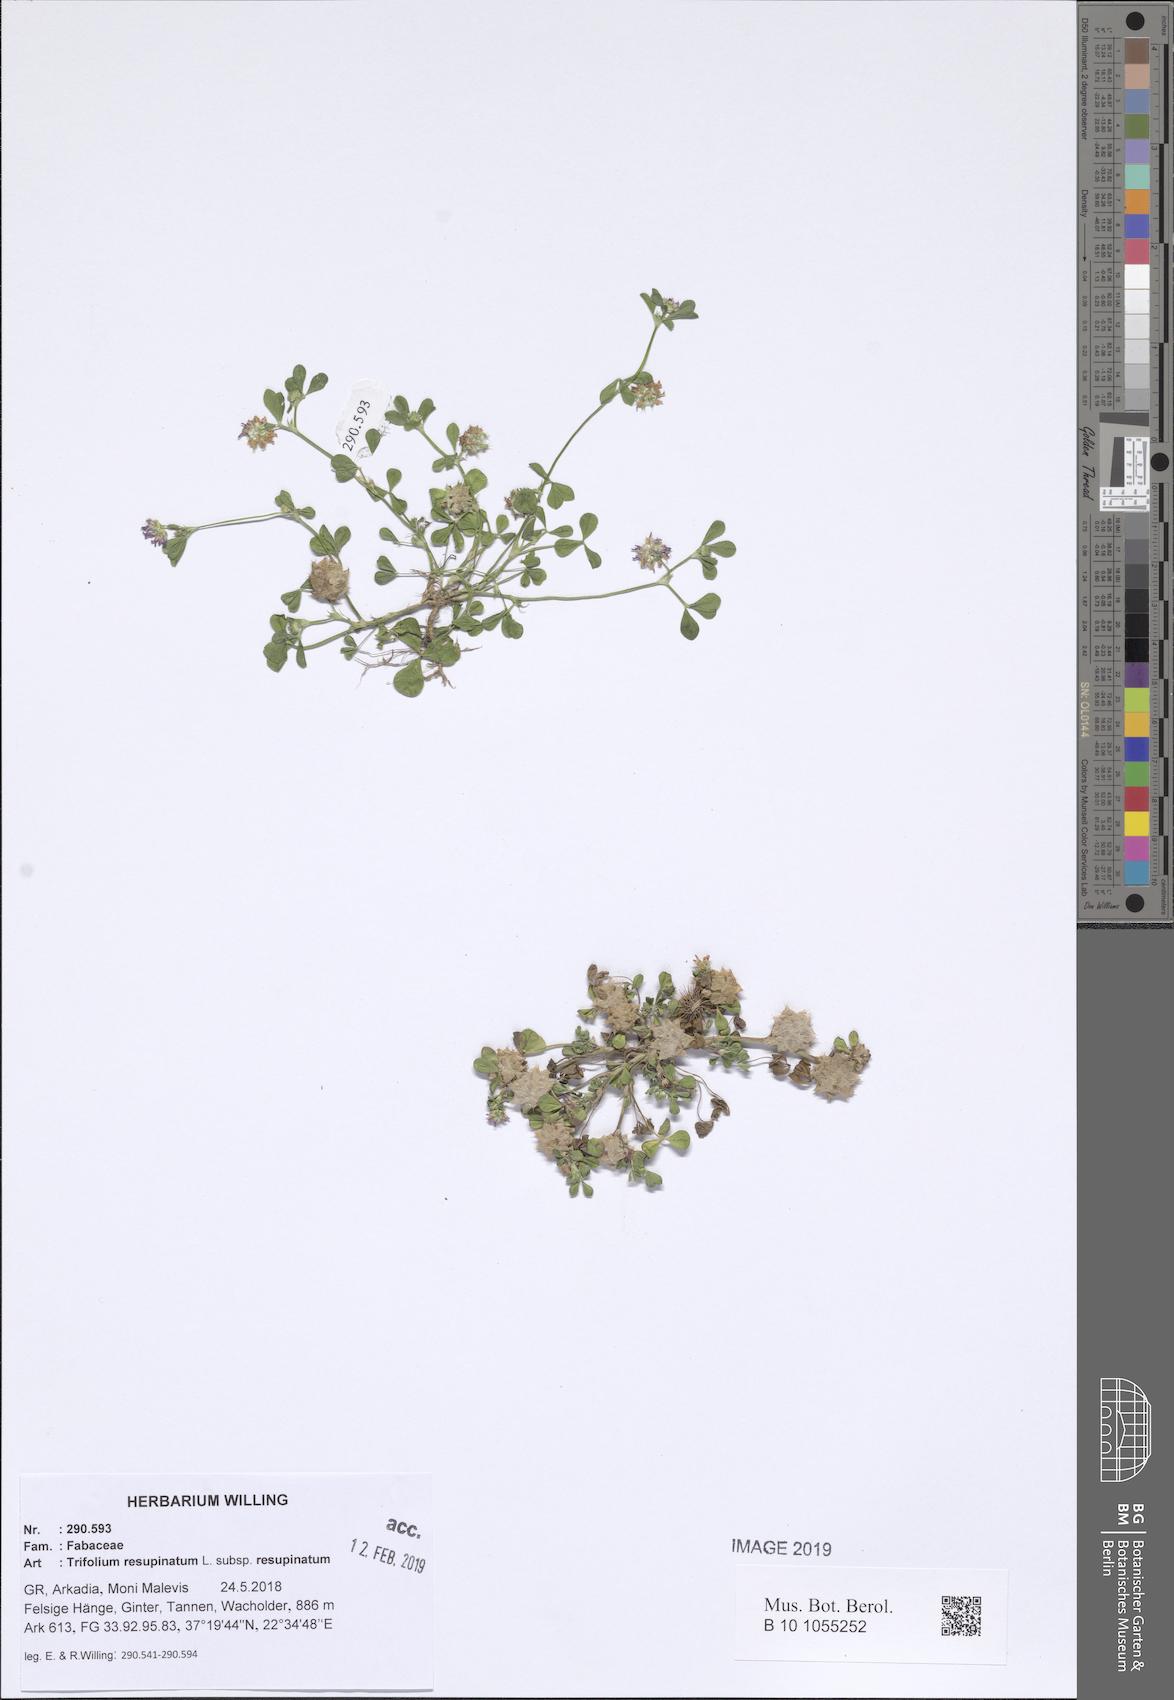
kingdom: Plantae
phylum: Tracheophyta
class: Magnoliopsida
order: Fabales
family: Fabaceae
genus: Trifolium
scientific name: Trifolium resupinatum
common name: Reversed clover
